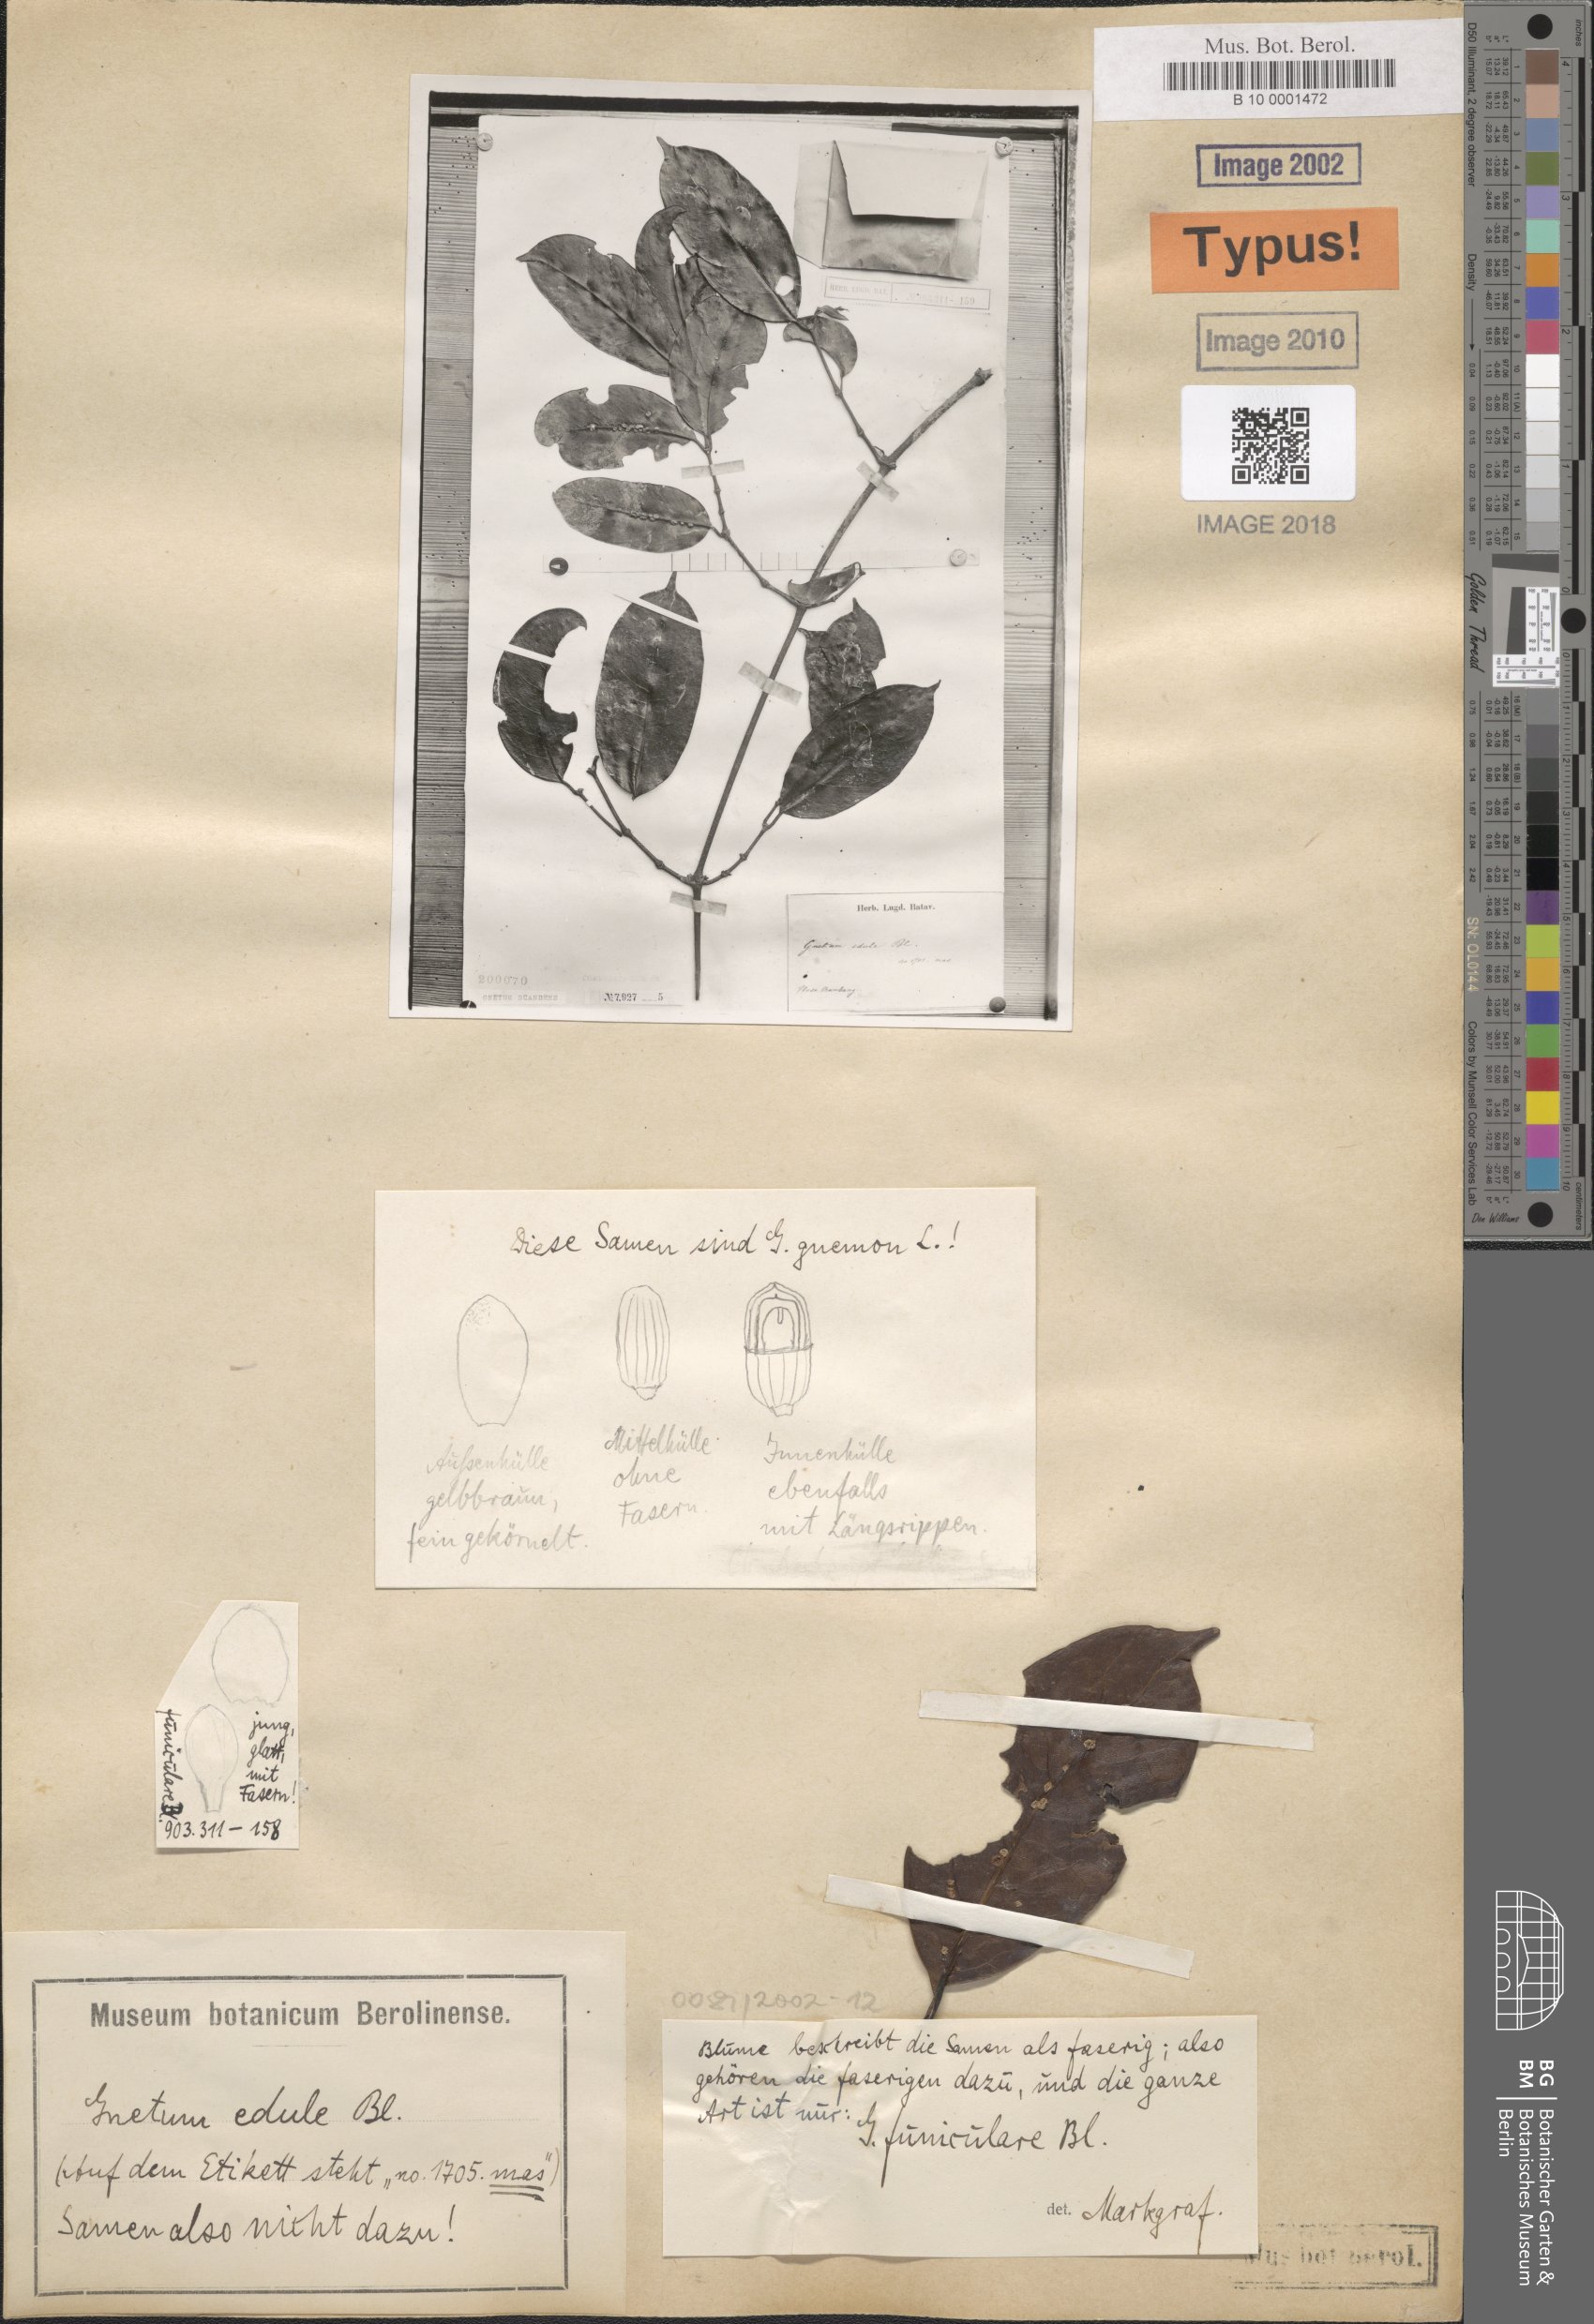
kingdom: Plantae
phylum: Tracheophyta
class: Gnetopsida
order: Gnetales
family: Gnetaceae
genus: Gnetum
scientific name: Gnetum funiculare
